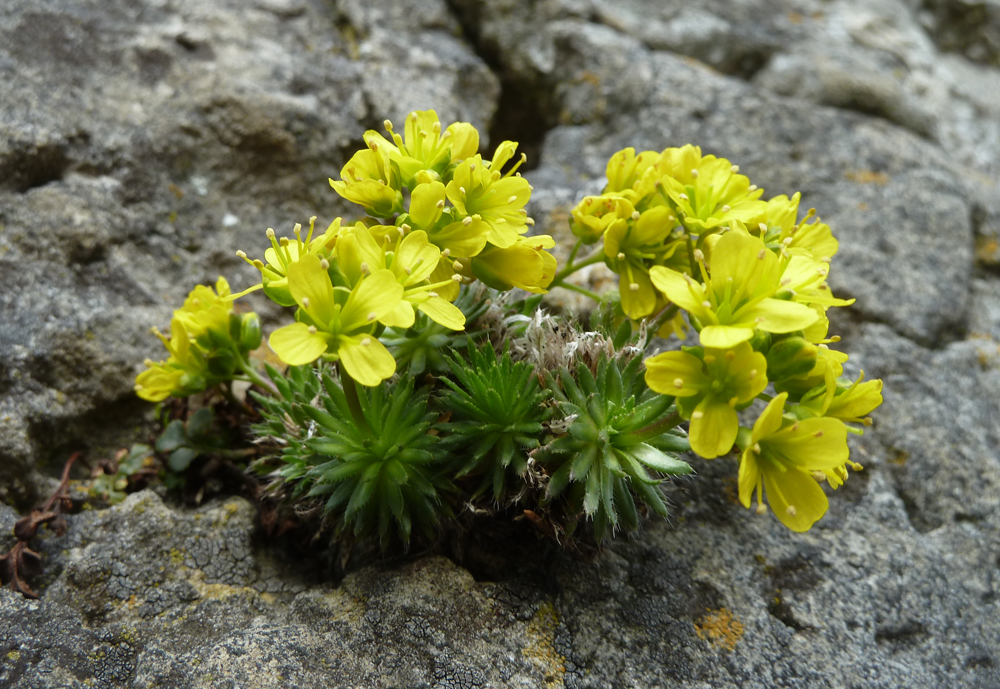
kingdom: Plantae
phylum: Tracheophyta
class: Magnoliopsida
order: Brassicales
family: Brassicaceae
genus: Draba
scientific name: Draba aizoides
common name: Yellow whitlowgrass
